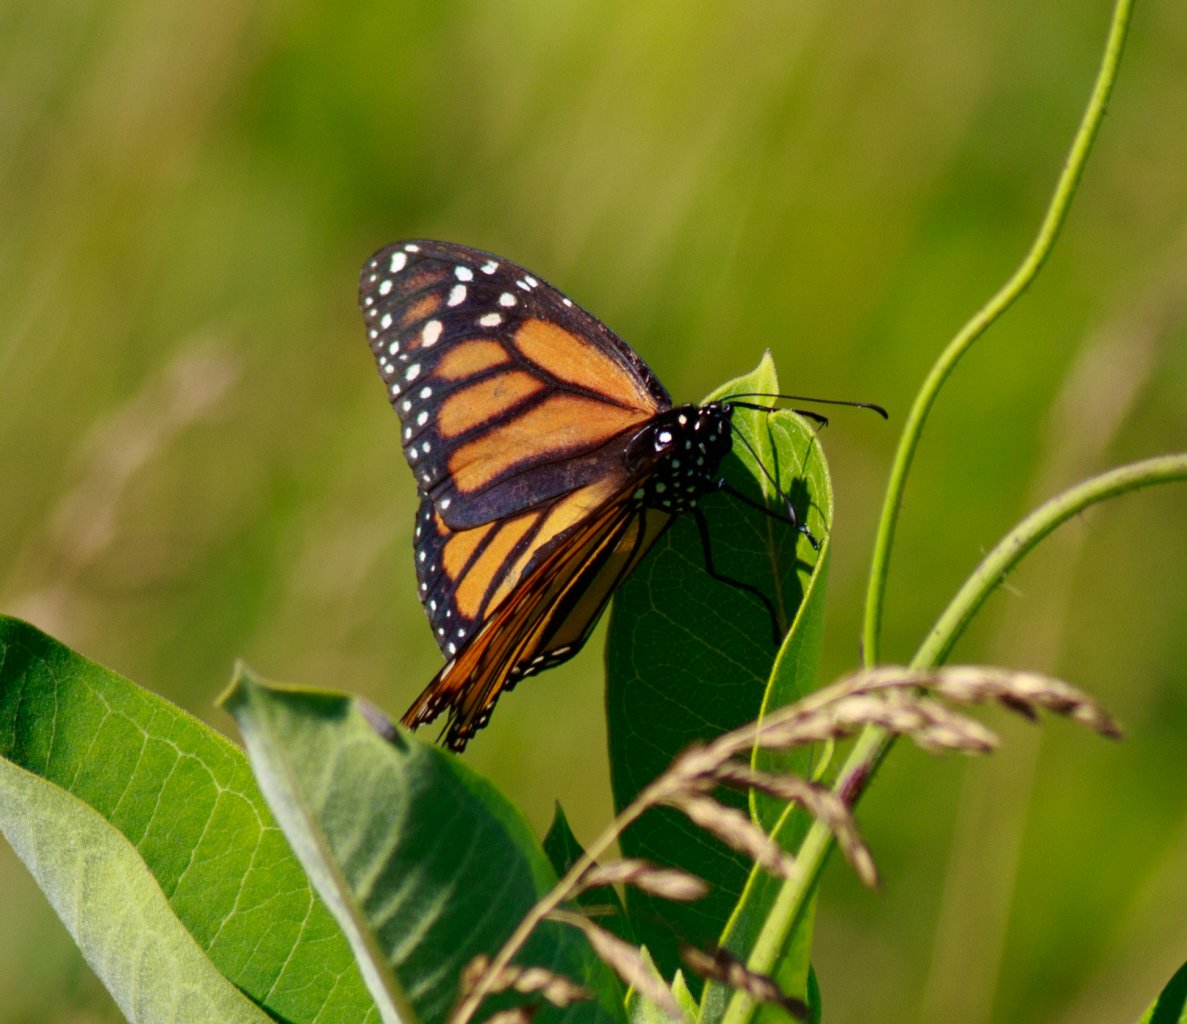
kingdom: Animalia
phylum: Arthropoda
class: Insecta
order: Lepidoptera
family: Nymphalidae
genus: Danaus
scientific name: Danaus plexippus
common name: Monarch
